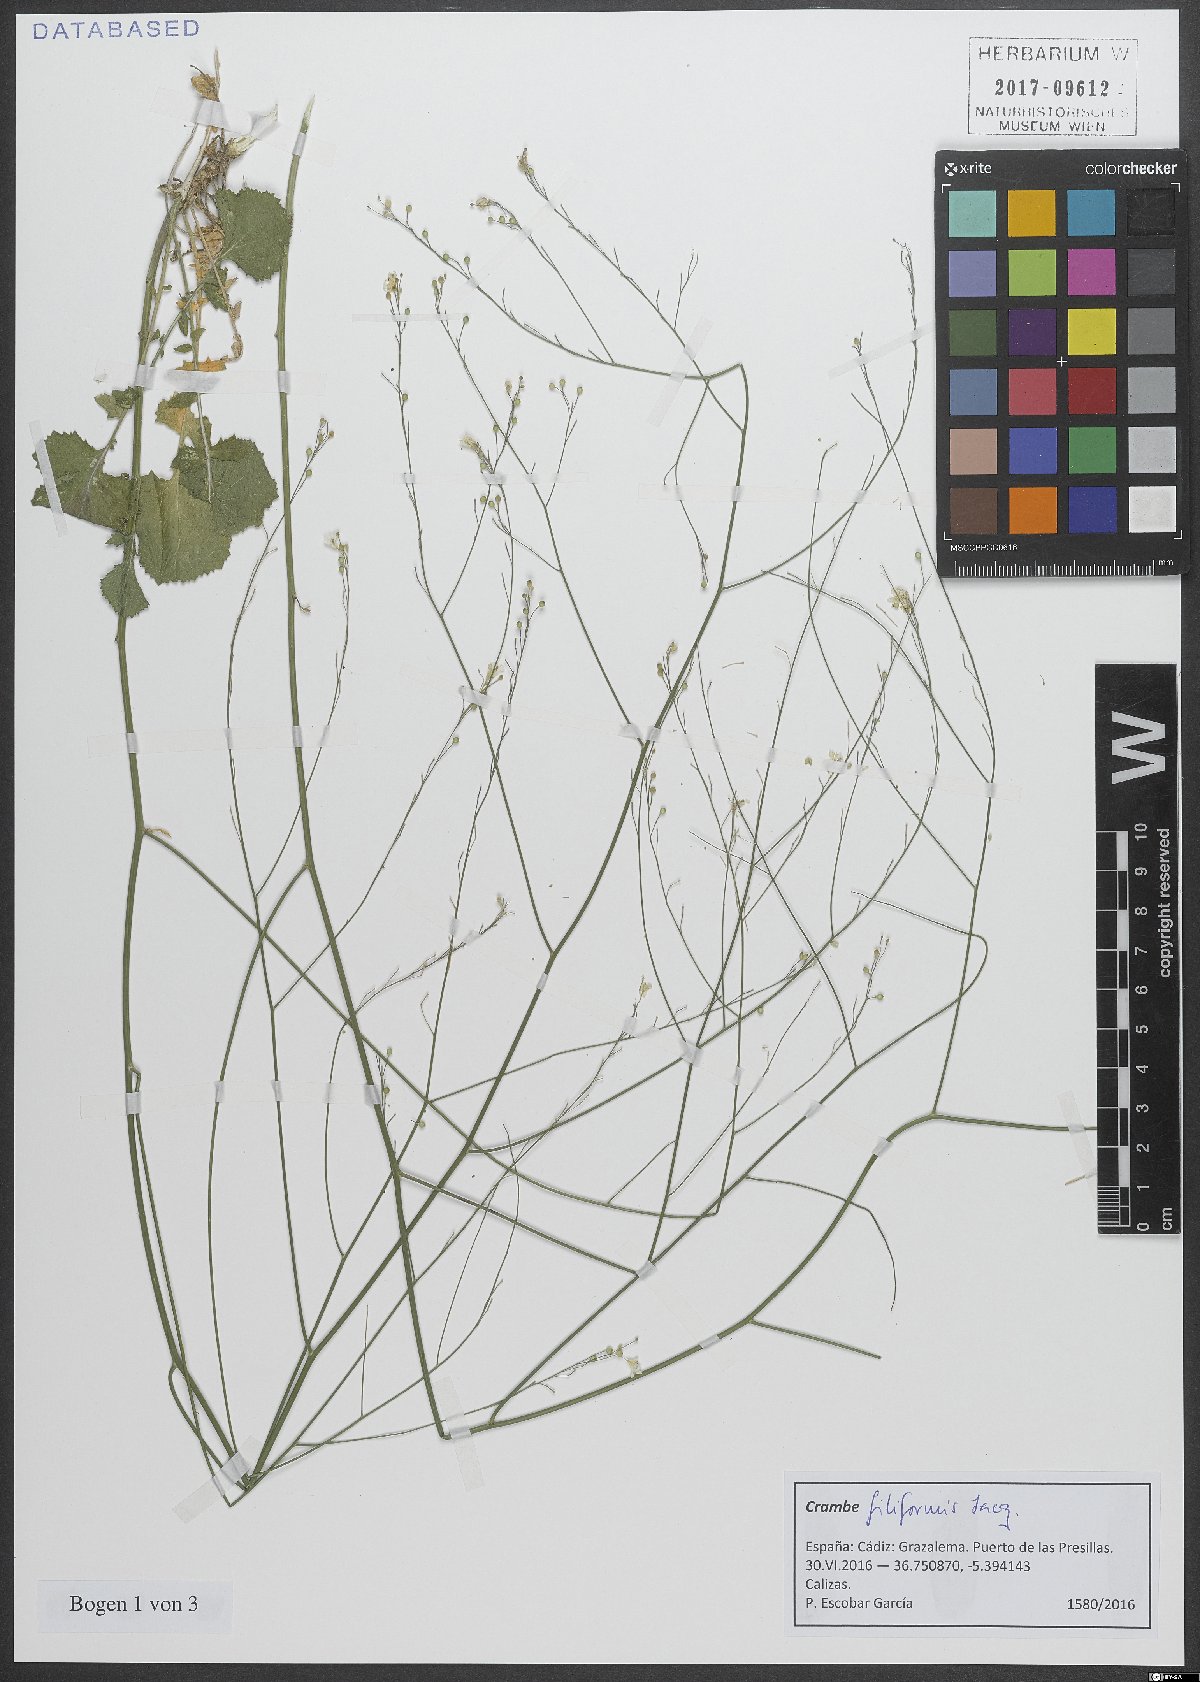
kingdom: Plantae
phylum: Tracheophyta
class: Magnoliopsida
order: Brassicales
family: Brassicaceae
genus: Crambe
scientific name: Crambe filiformis
